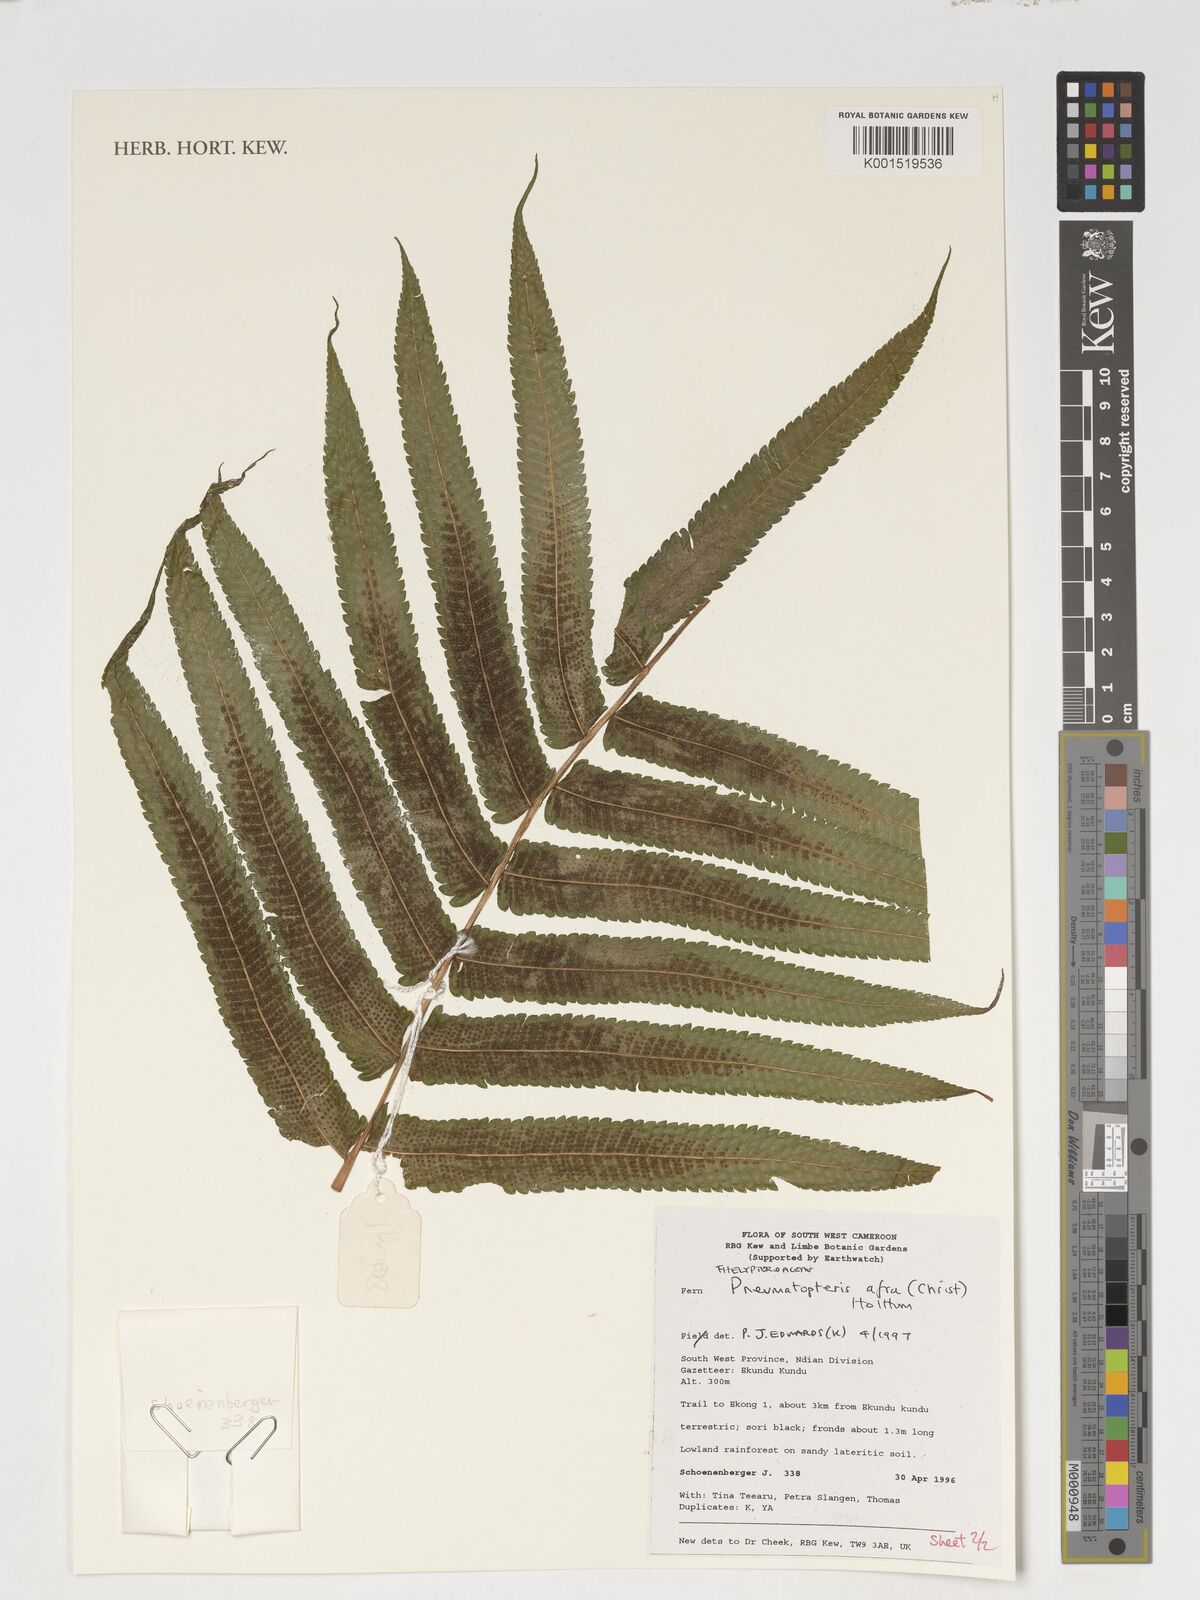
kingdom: Plantae
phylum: Tracheophyta
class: Polypodiopsida
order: Polypodiales
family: Thelypteridaceae
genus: Abacopteris
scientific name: Abacopteris afra
